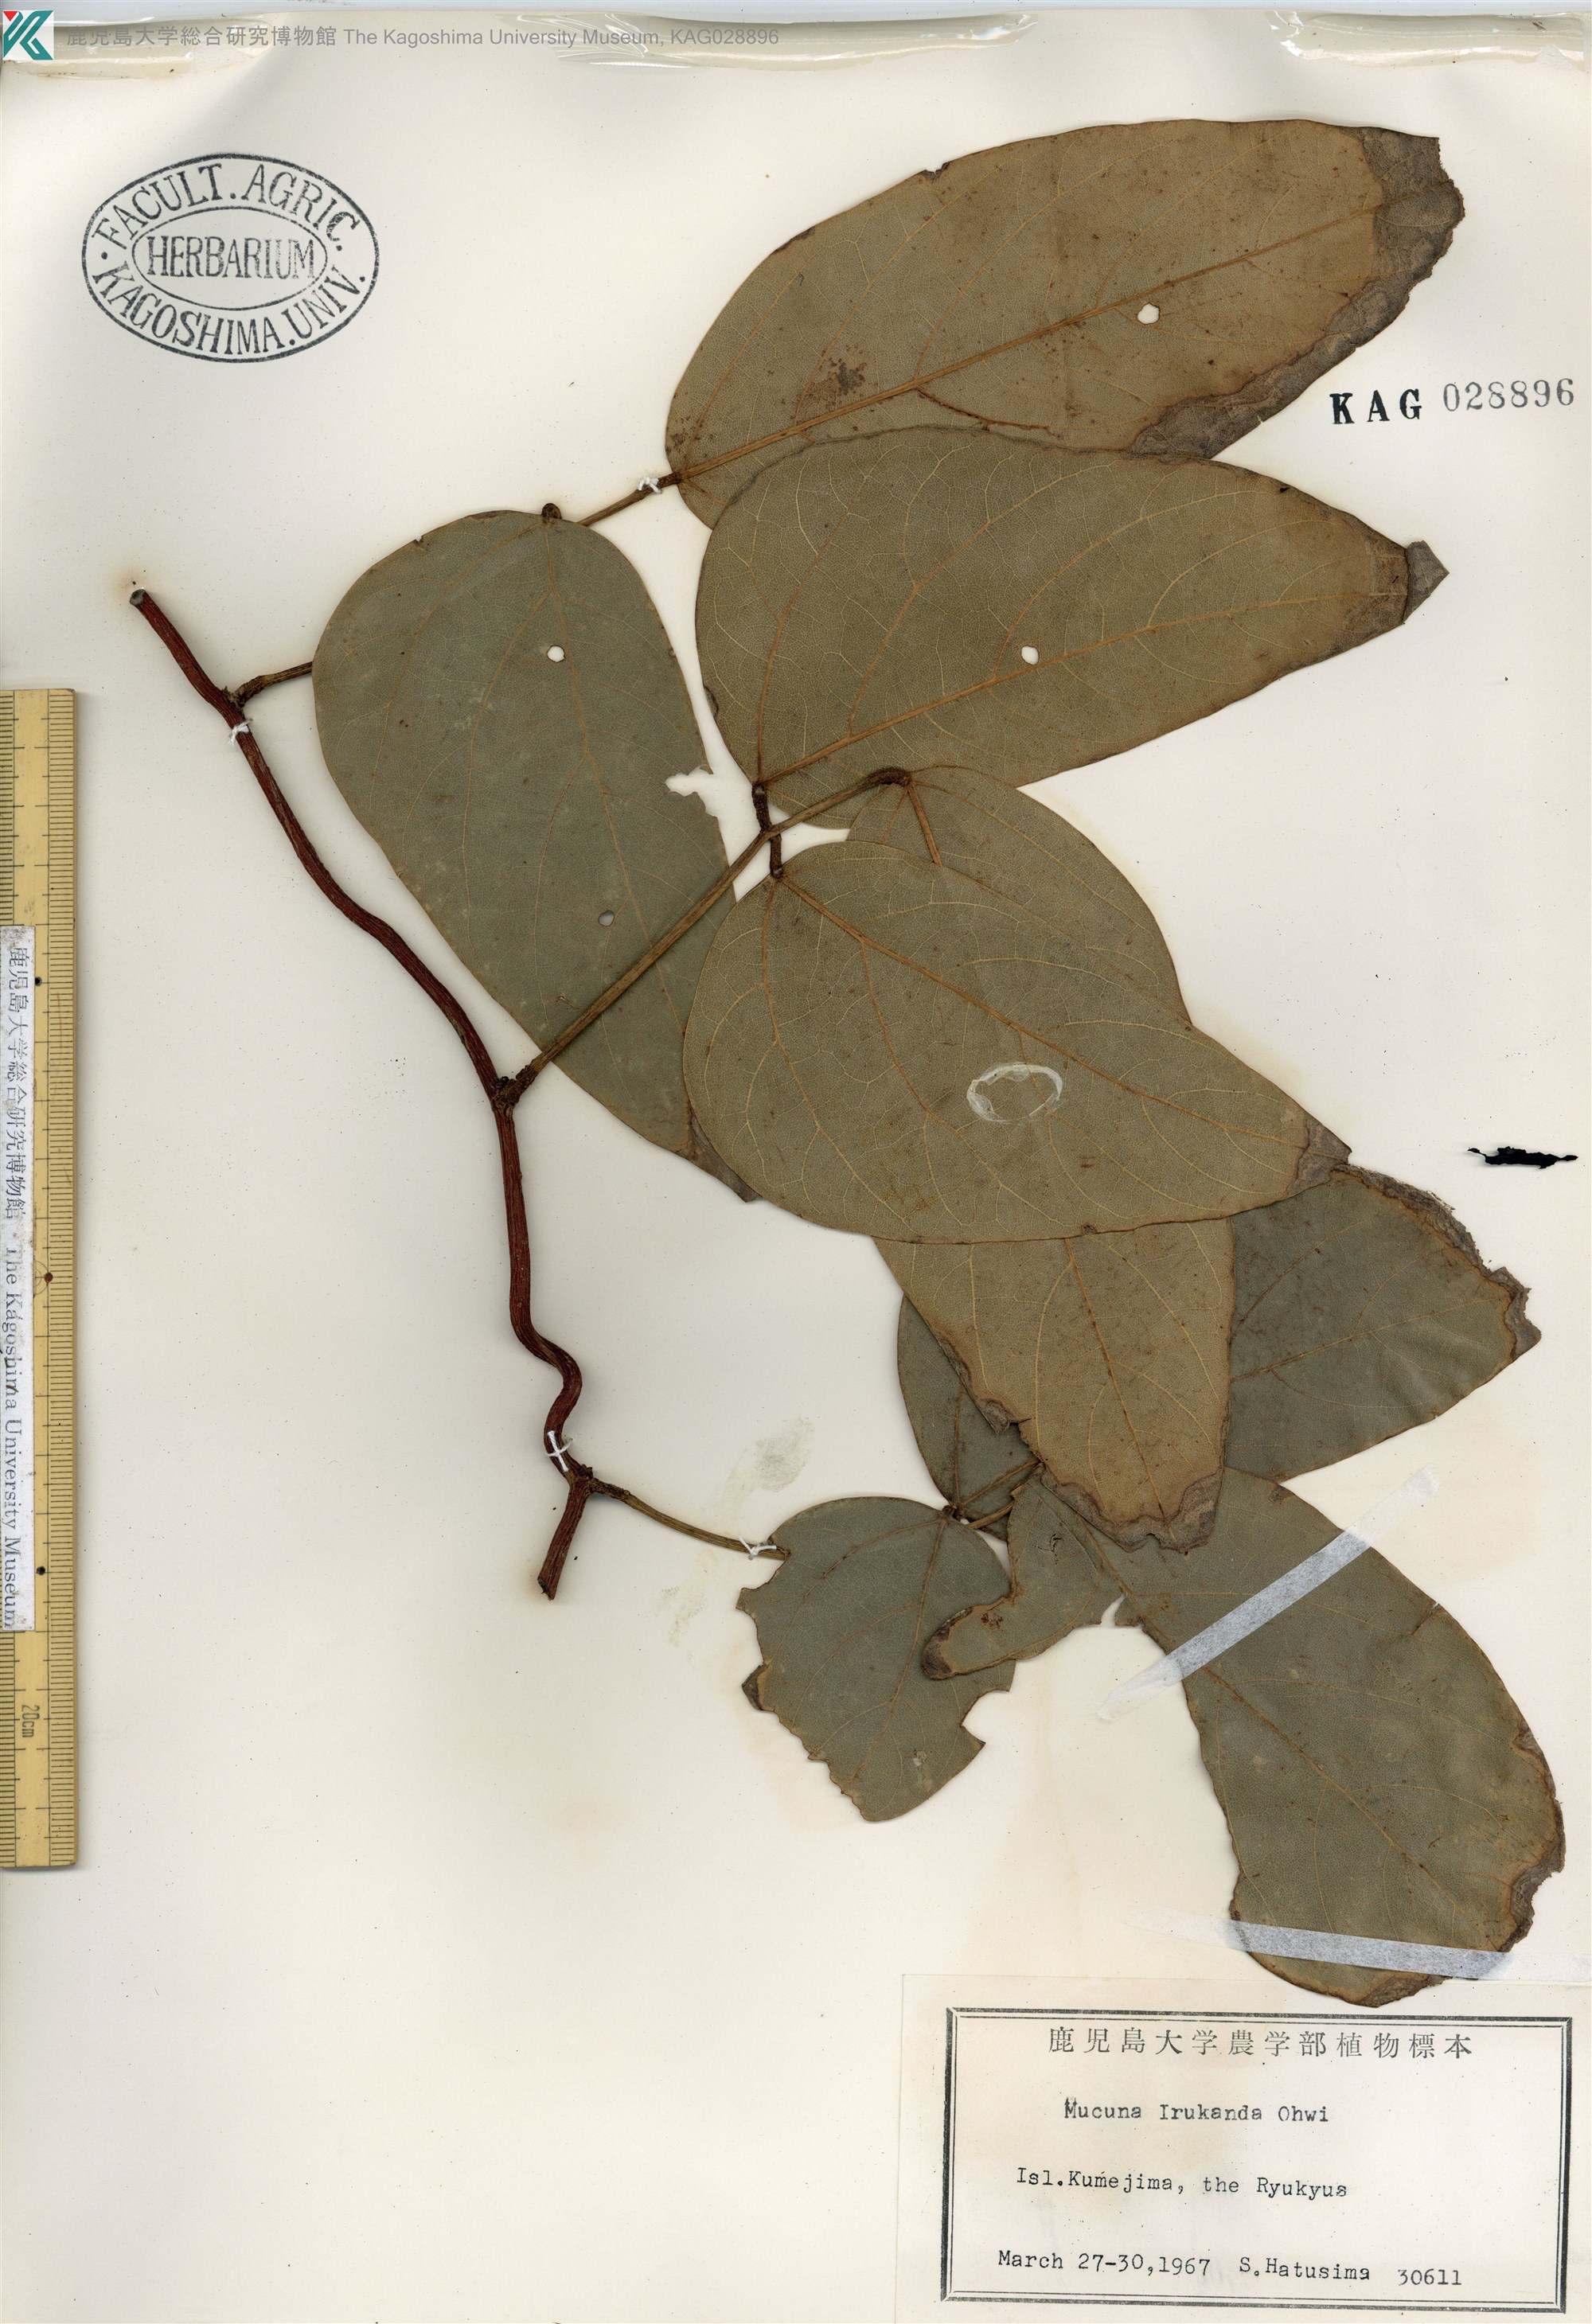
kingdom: Plantae
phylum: Tracheophyta
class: Magnoliopsida
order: Fabales
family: Fabaceae
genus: Mucuna
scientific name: Mucuna macrocarpa
